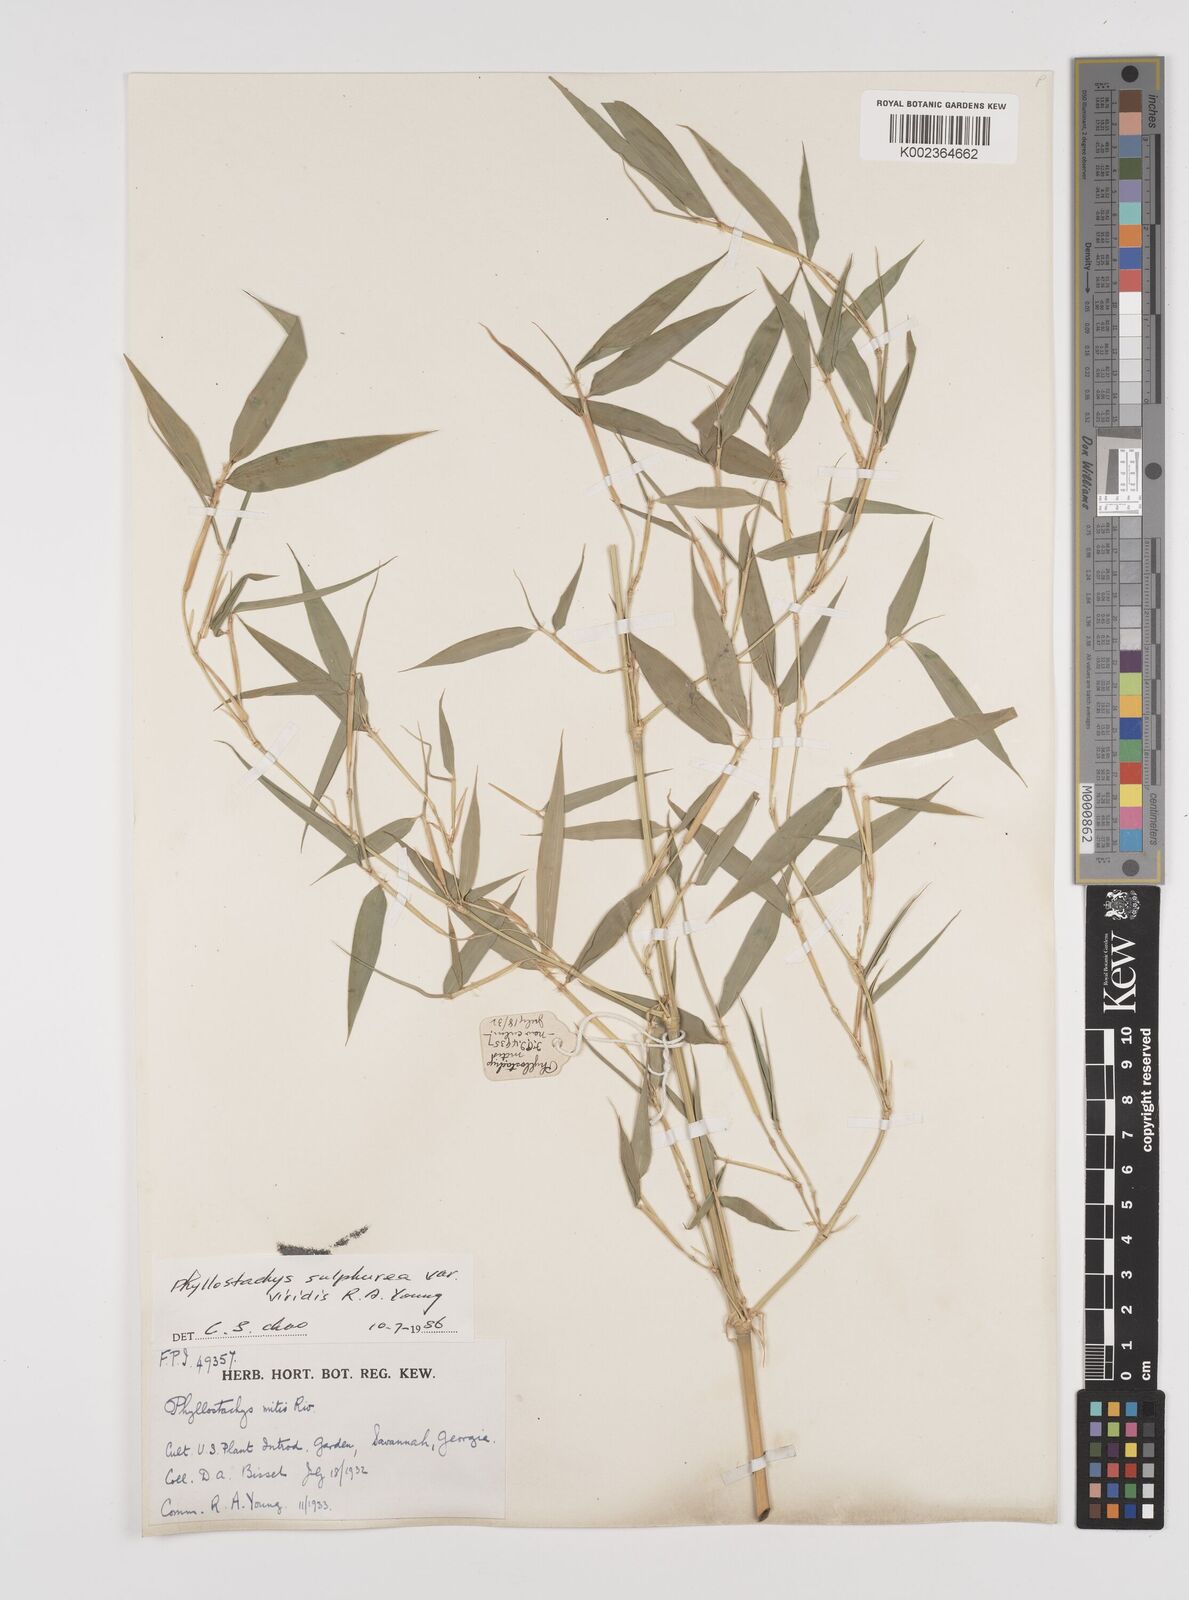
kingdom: Plantae
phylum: Tracheophyta
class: Liliopsida
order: Poales
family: Poaceae
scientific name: Poaceae
